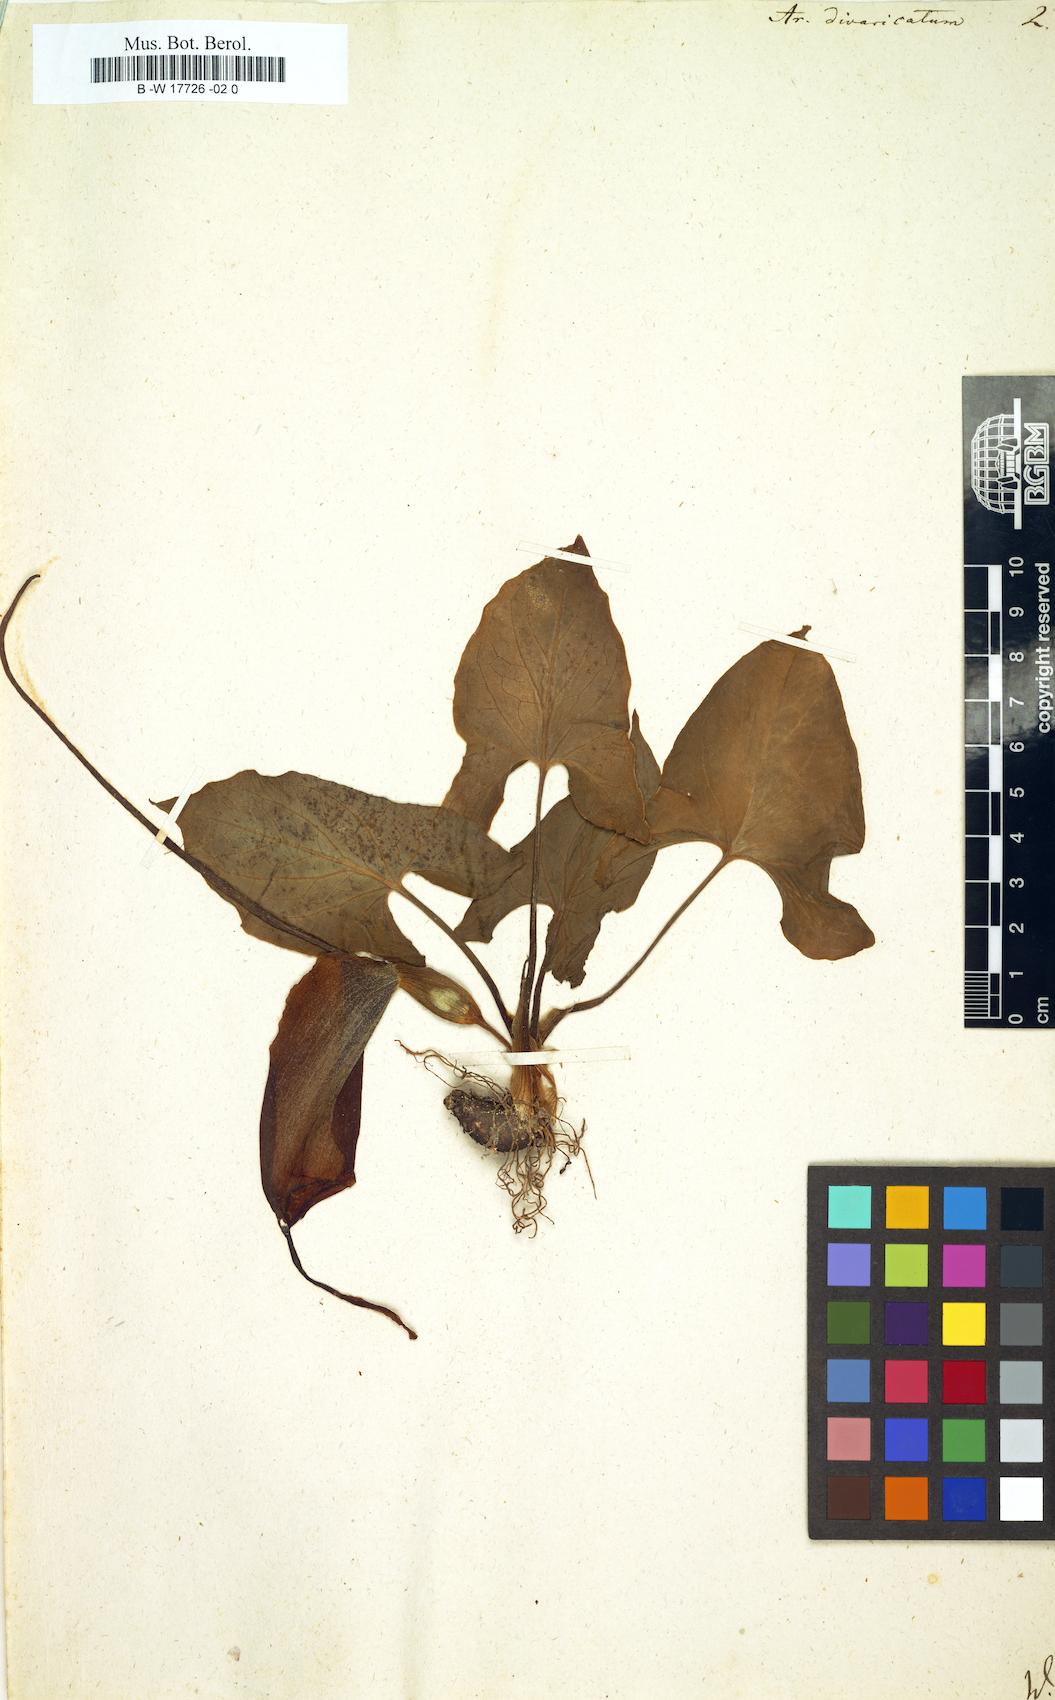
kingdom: Plantae
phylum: Tracheophyta
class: Liliopsida
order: Alismatales
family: Araceae
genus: Typhonium
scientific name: Typhonium flagelliforme
